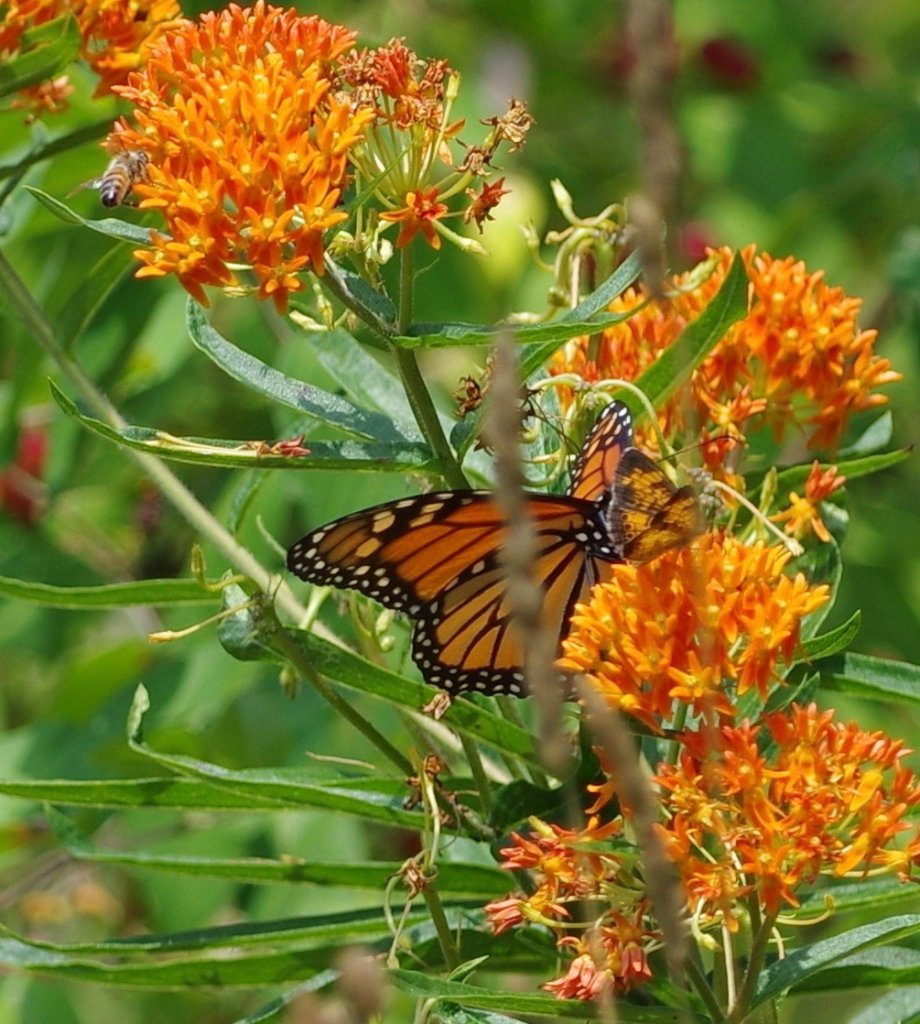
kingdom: Animalia
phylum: Arthropoda
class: Insecta
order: Lepidoptera
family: Nymphalidae
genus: Danaus
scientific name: Danaus plexippus
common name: Monarch
